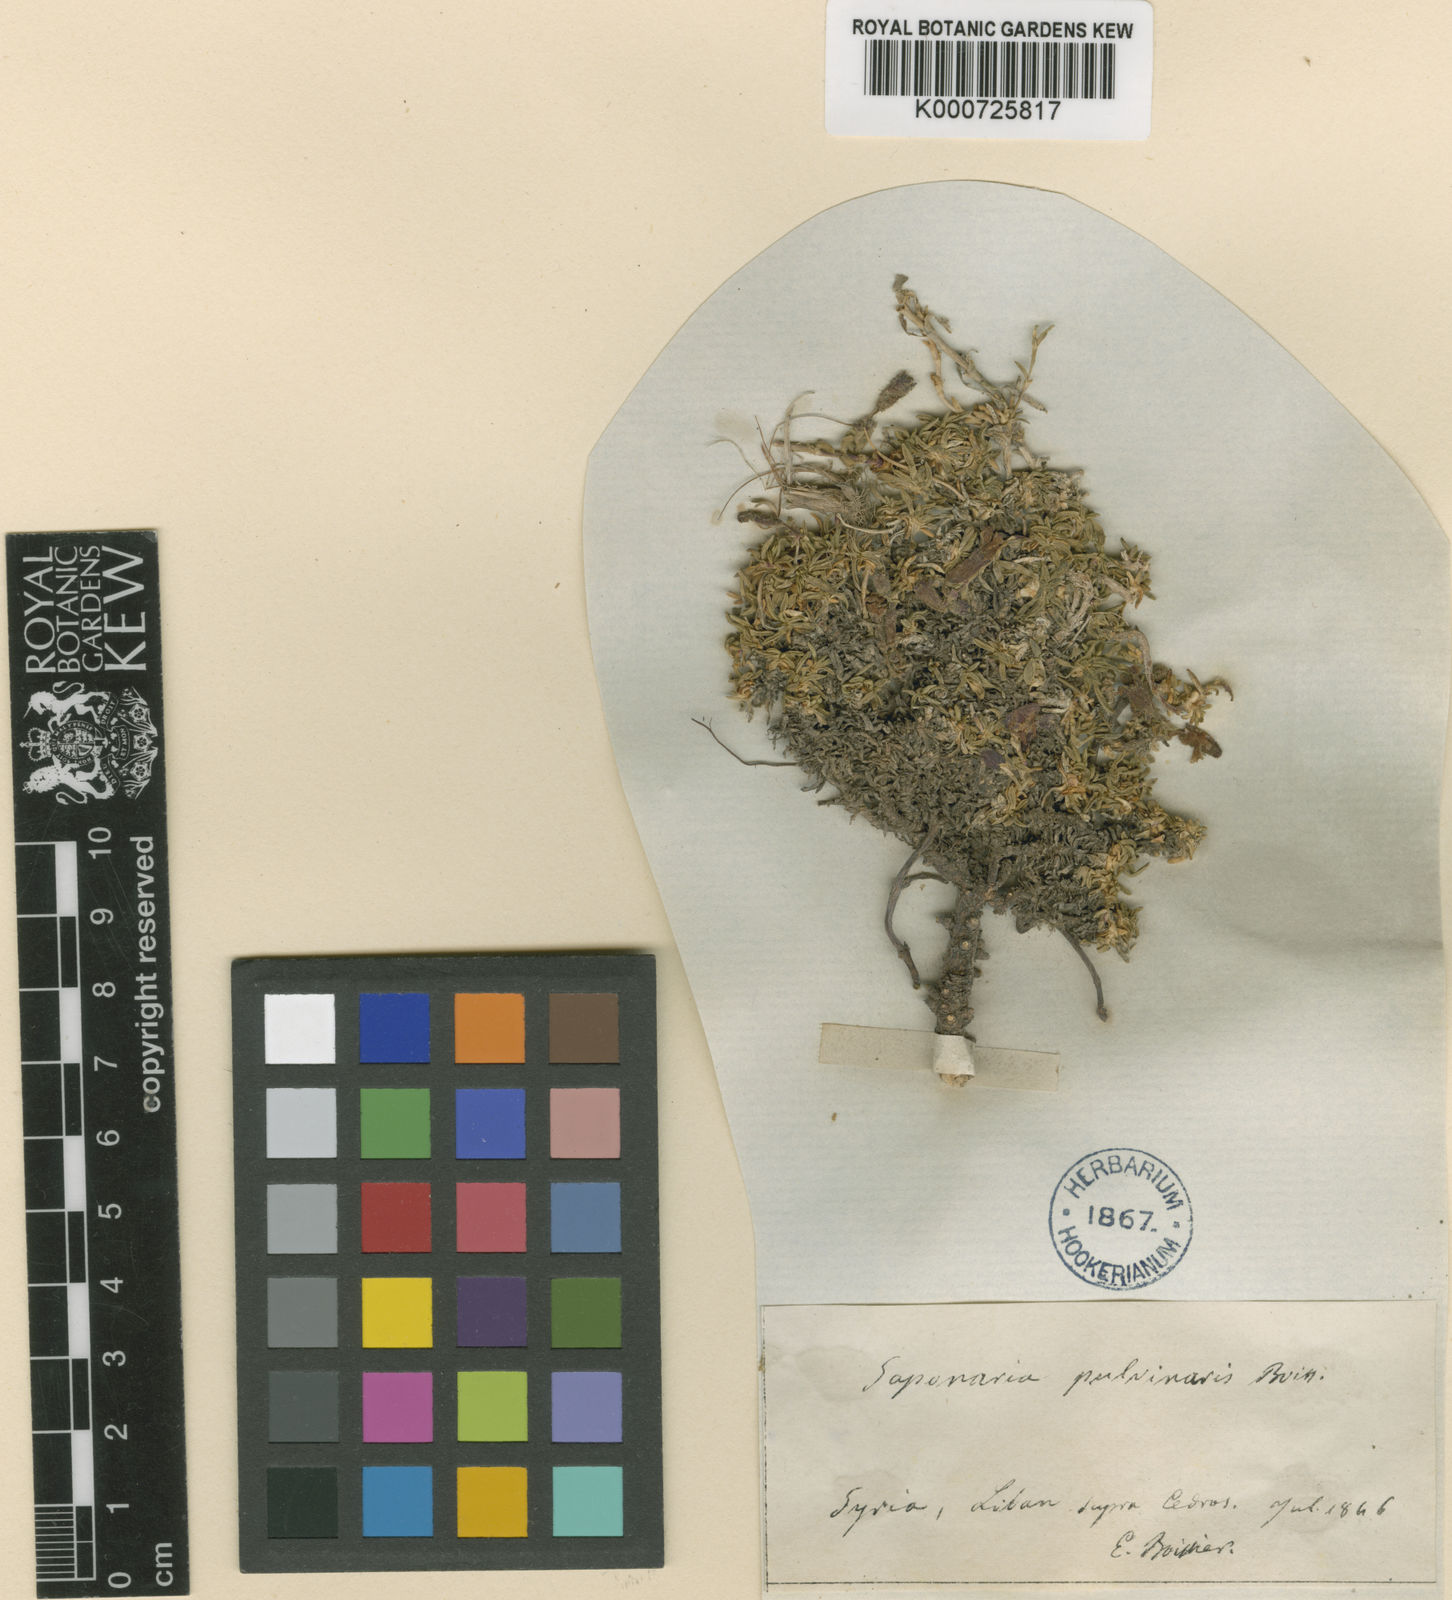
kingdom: Plantae
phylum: Tracheophyta
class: Magnoliopsida
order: Caryophyllales
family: Caryophyllaceae
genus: Saponaria
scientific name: Saponaria pumilio
